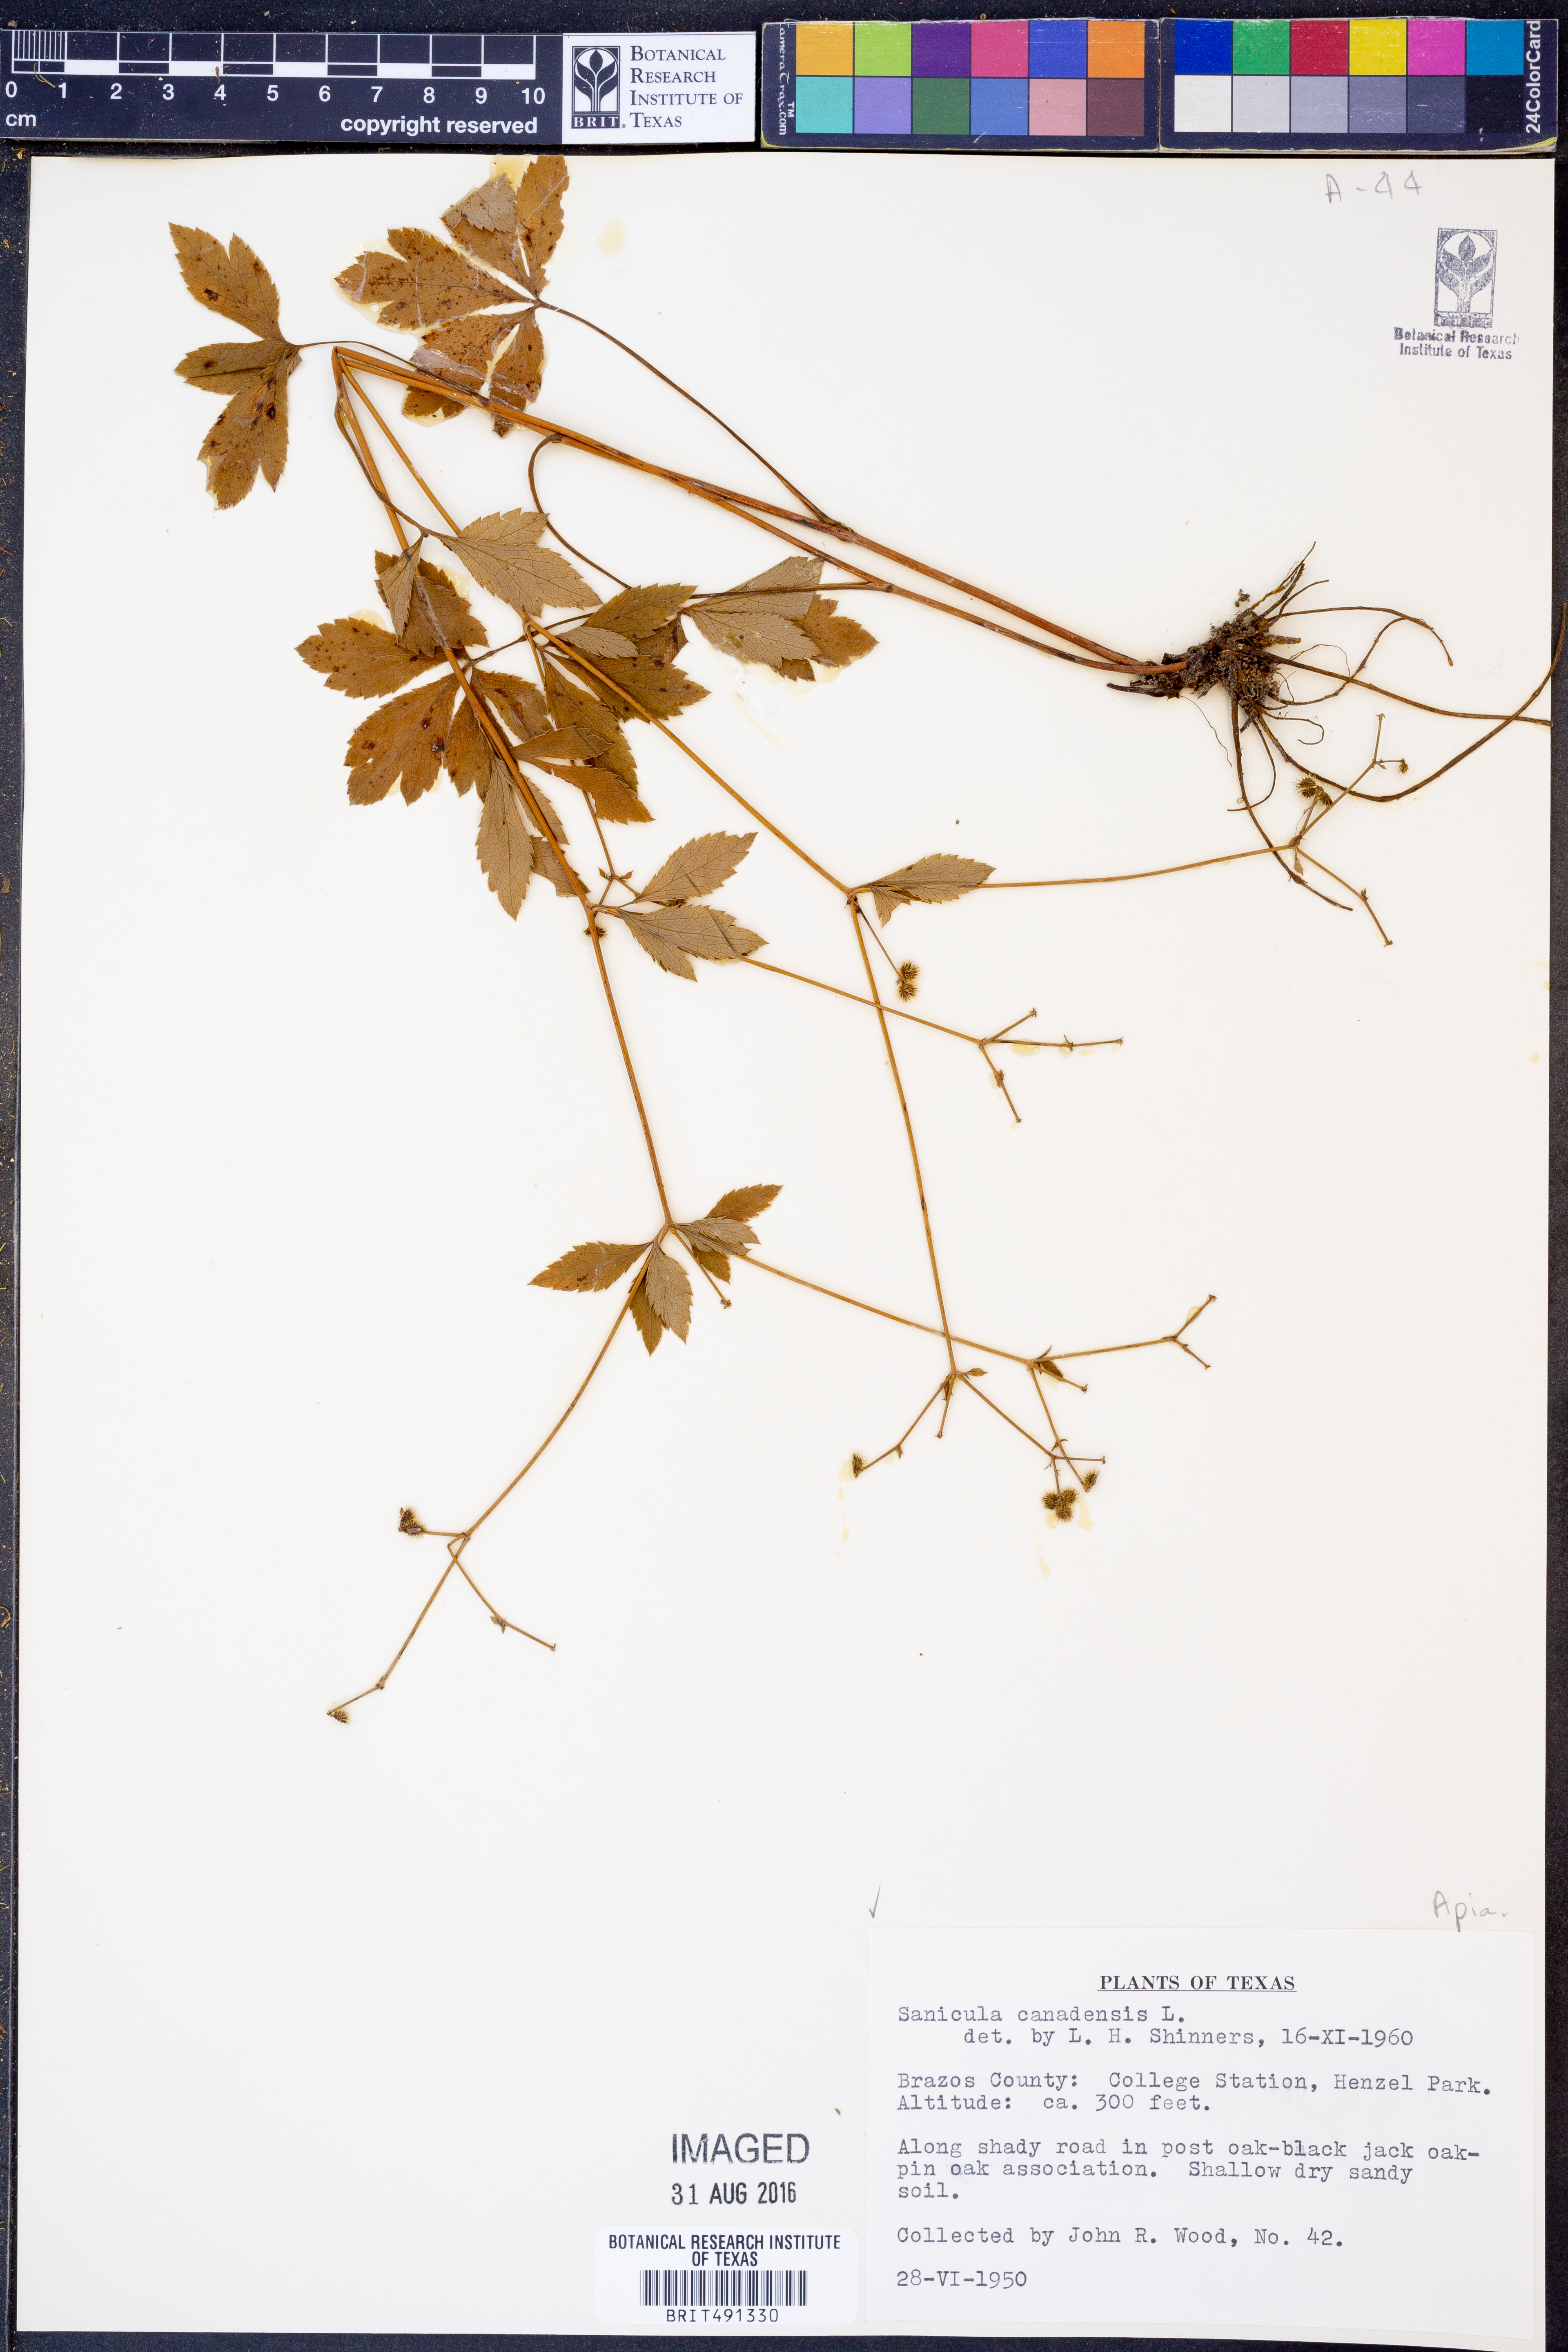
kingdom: Plantae
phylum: Tracheophyta
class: Magnoliopsida
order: Apiales
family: Apiaceae
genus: Sanicula
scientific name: Sanicula canadensis
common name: Canada sanicle
